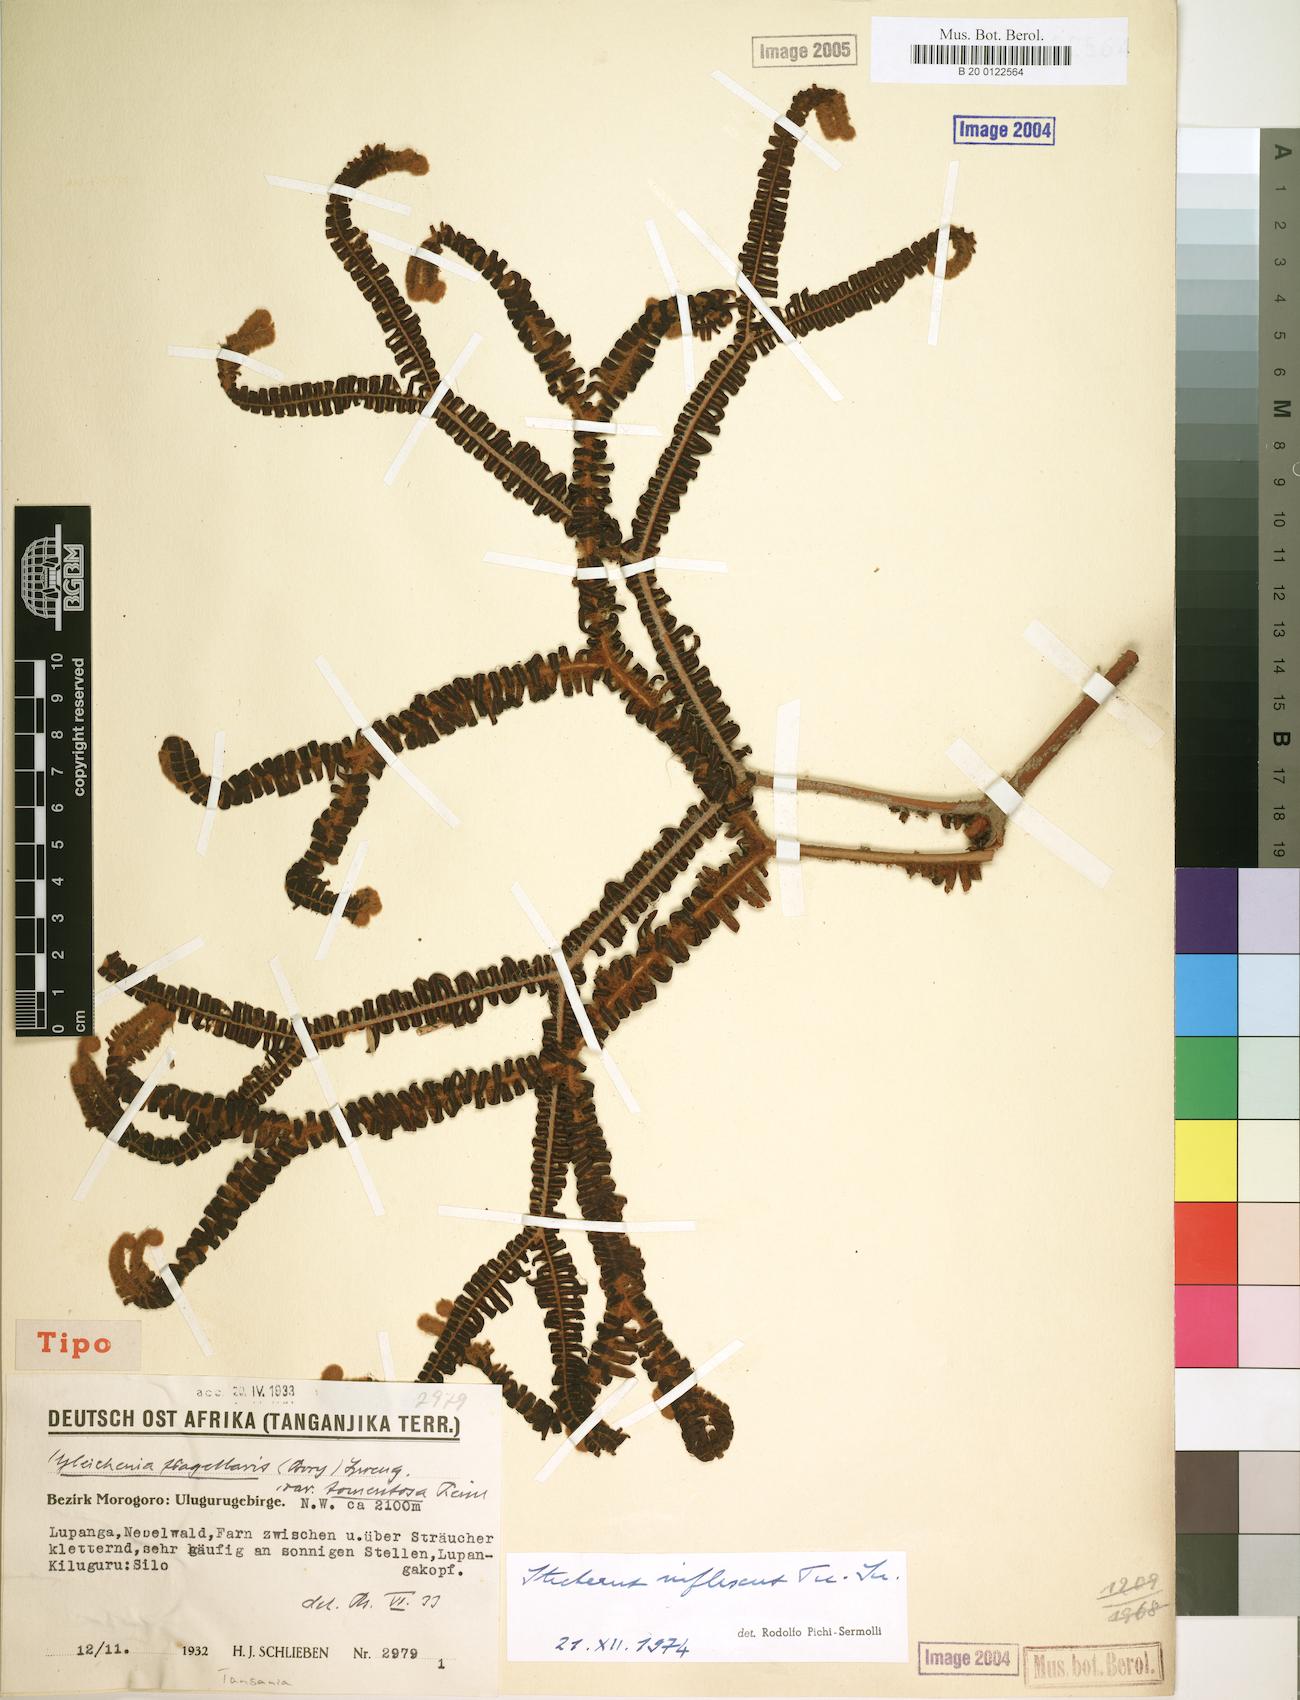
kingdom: Plantae
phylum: Tracheophyta
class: Polypodiopsida
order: Gleicheniales
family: Gleicheniaceae
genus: Sticherus
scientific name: Sticherus inflexus
